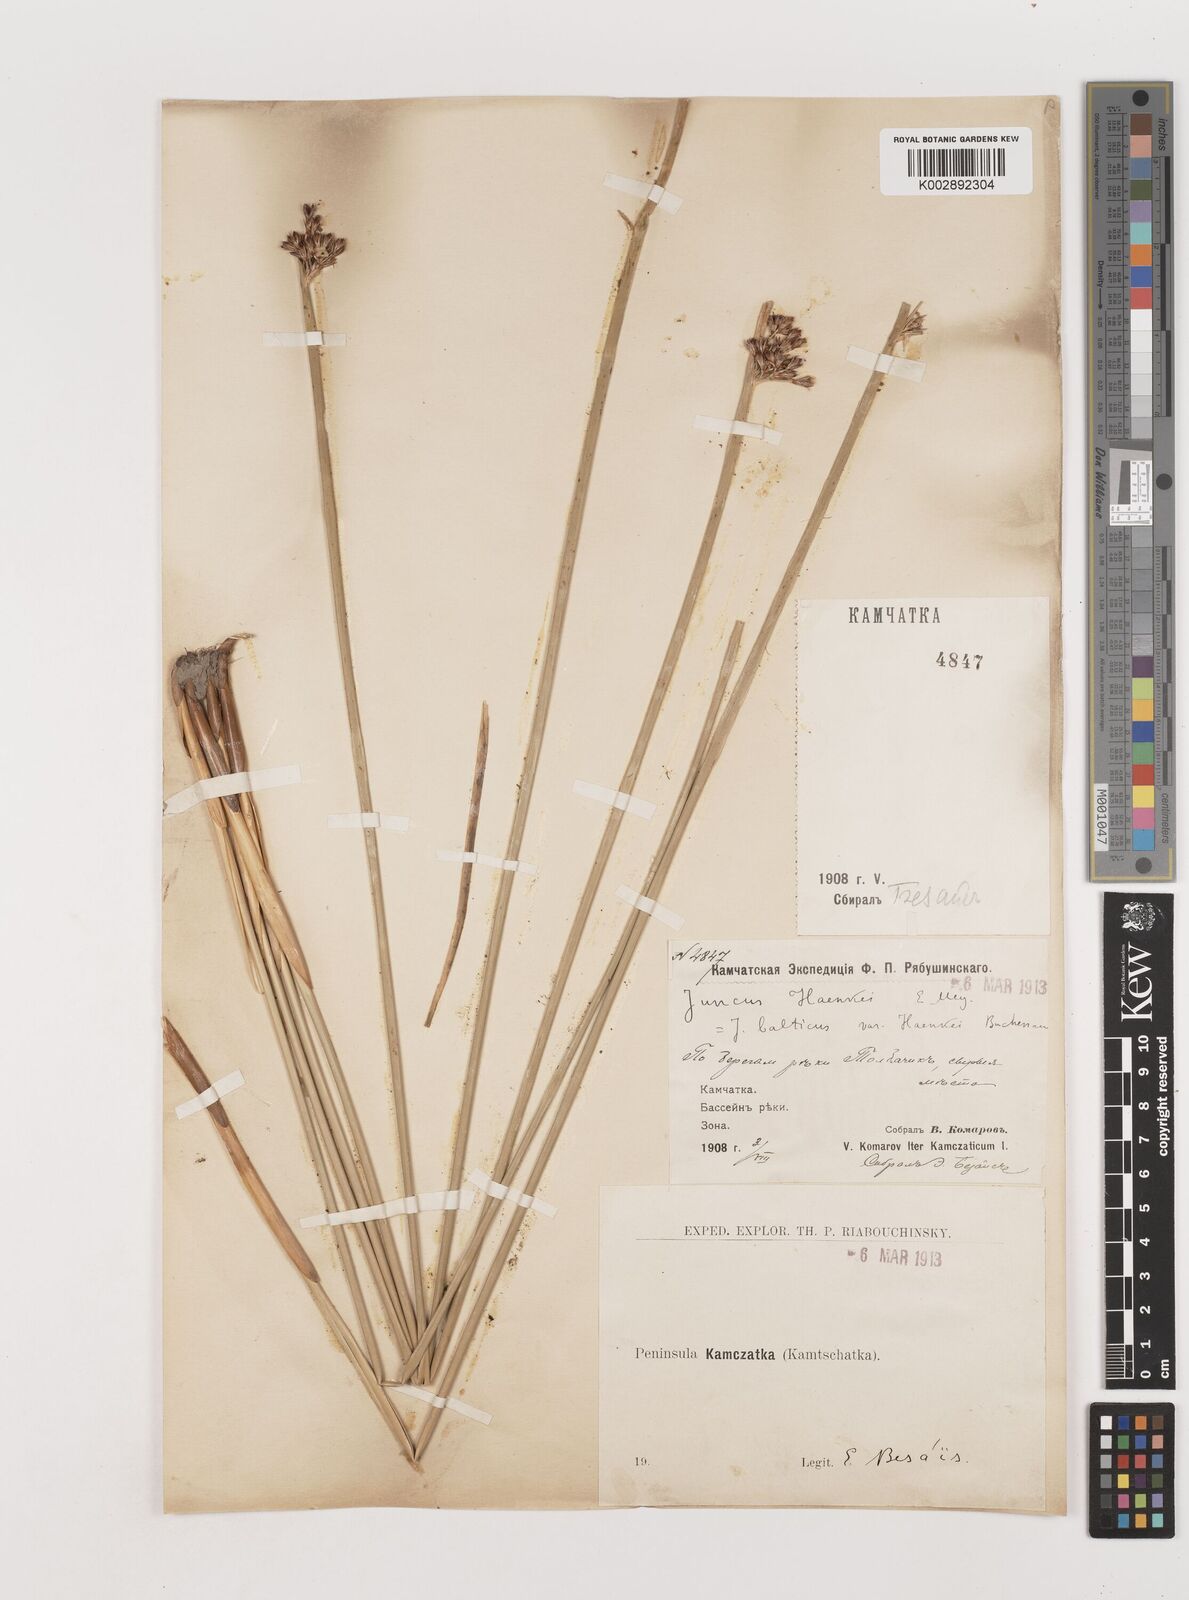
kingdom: Plantae
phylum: Tracheophyta
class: Liliopsida
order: Poales
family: Juncaceae
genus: Juncus
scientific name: Juncus balticus
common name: Baltic rush
